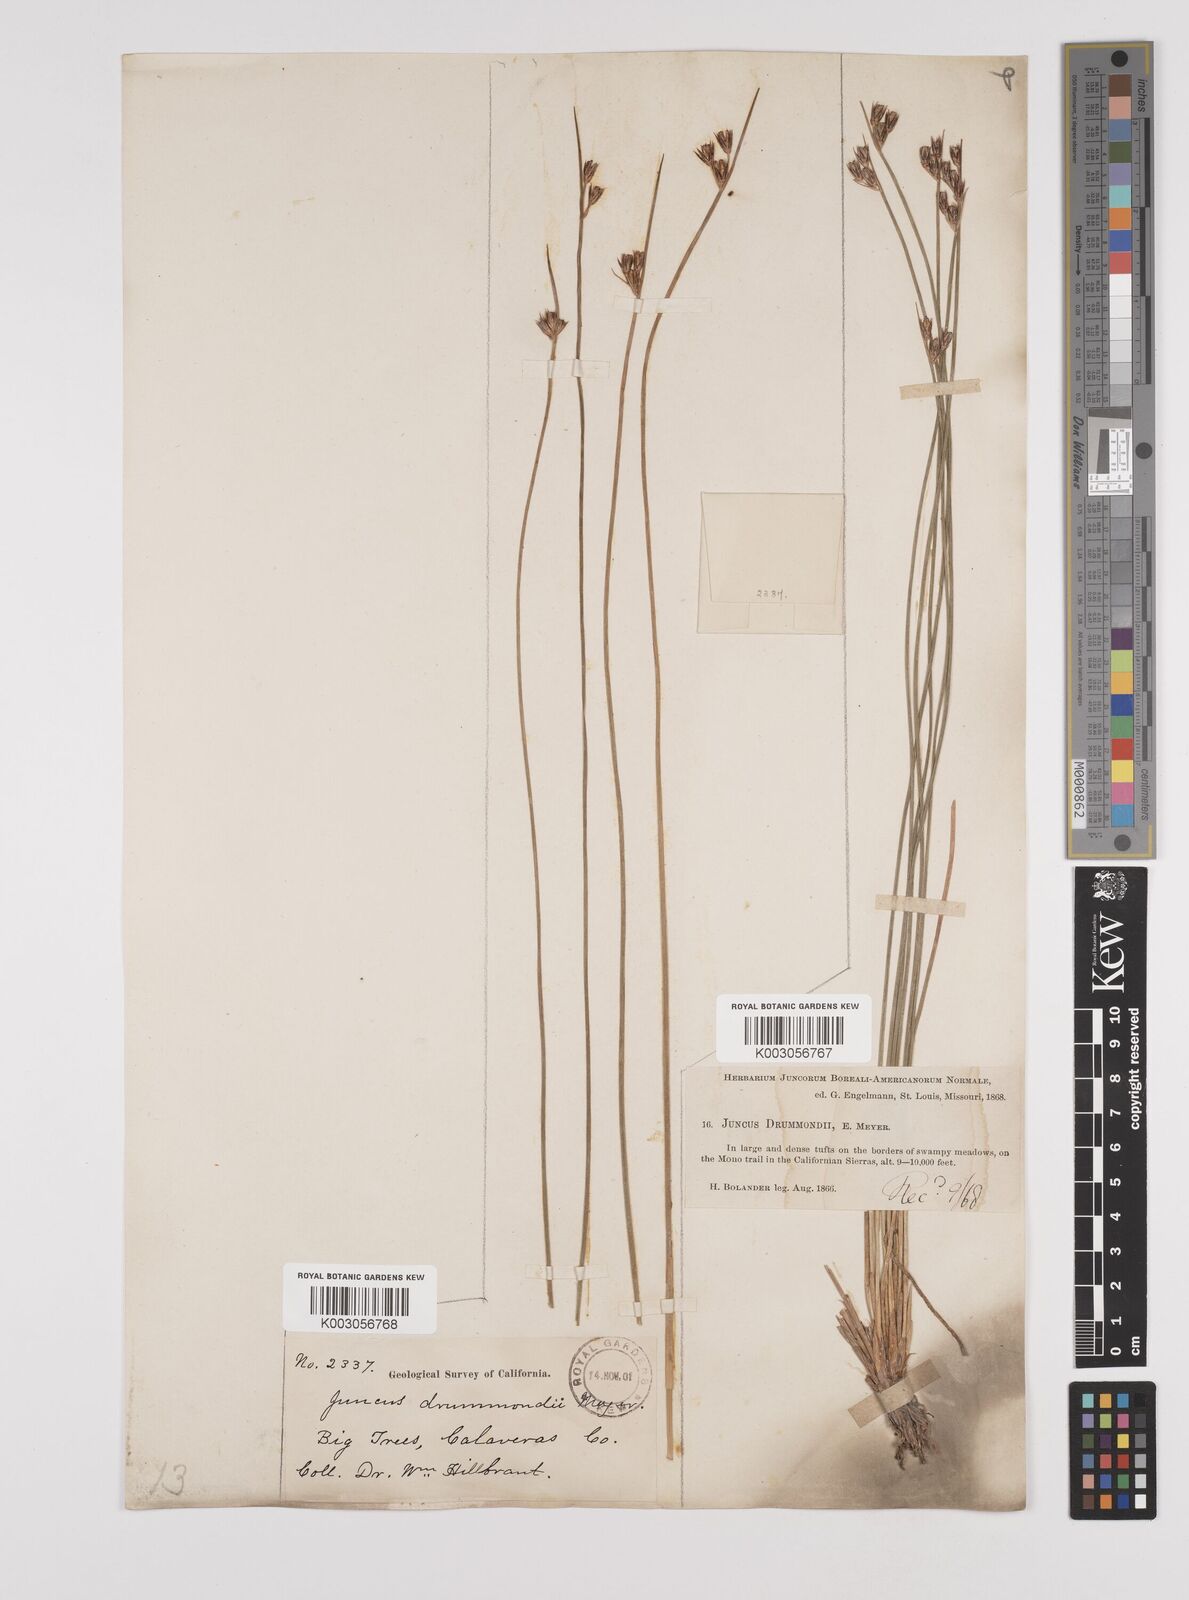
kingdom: Plantae
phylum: Tracheophyta
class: Liliopsida
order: Poales
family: Juncaceae
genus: Juncus
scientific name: Juncus drummondii
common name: Drummond's rush
